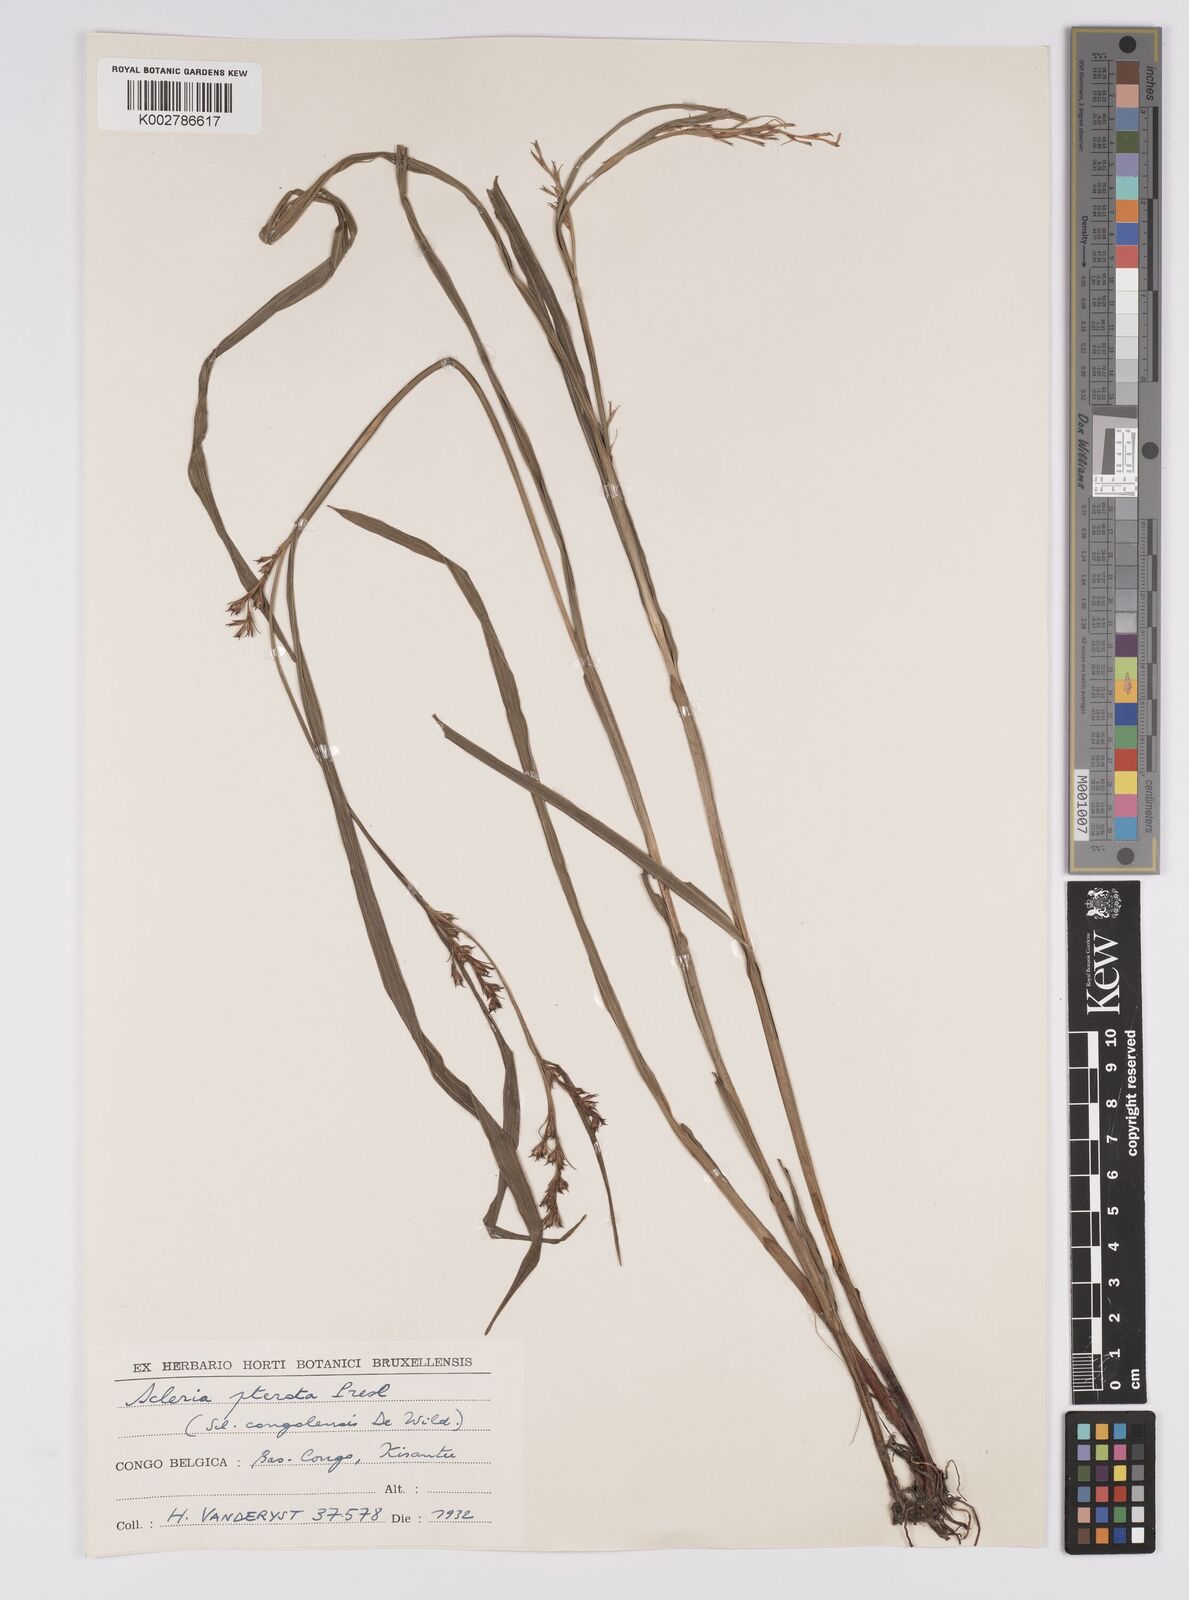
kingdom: Plantae
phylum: Tracheophyta
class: Liliopsida
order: Poales
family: Cyperaceae
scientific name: Cyperaceae
